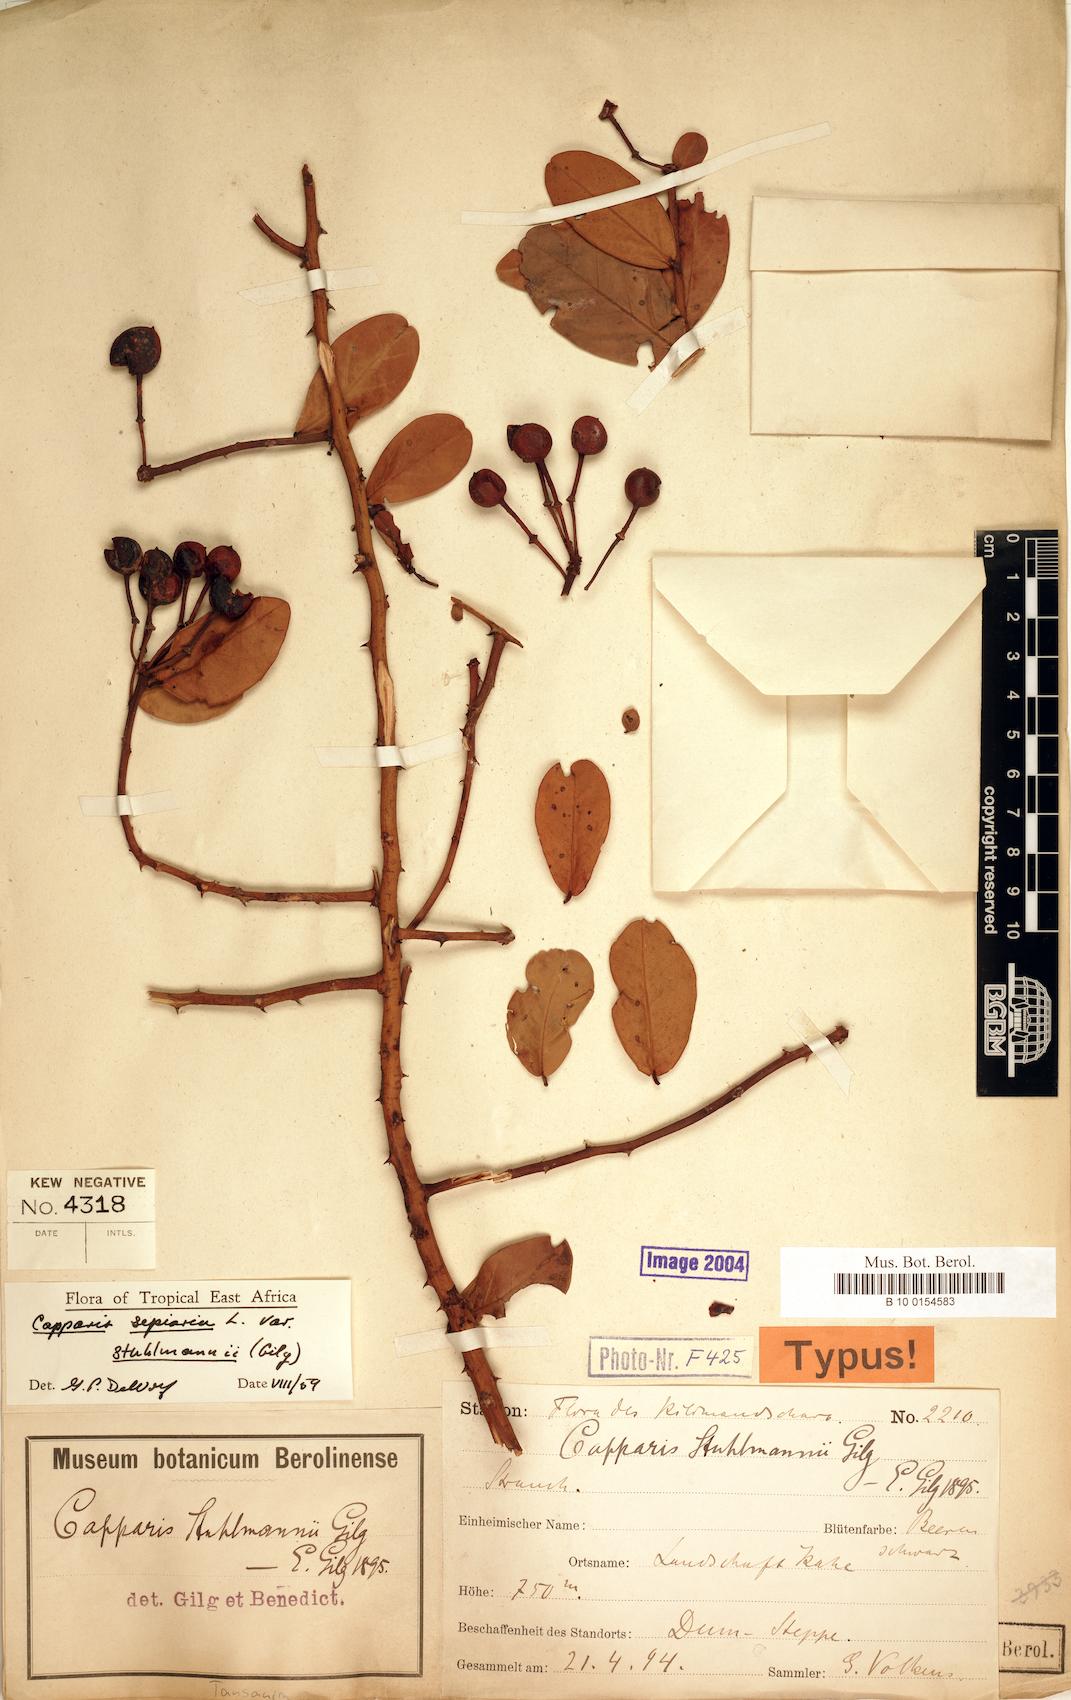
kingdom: Plantae
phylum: Tracheophyta
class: Magnoliopsida
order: Brassicales
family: Capparaceae
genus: Capparis
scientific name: Capparis sepiaria
